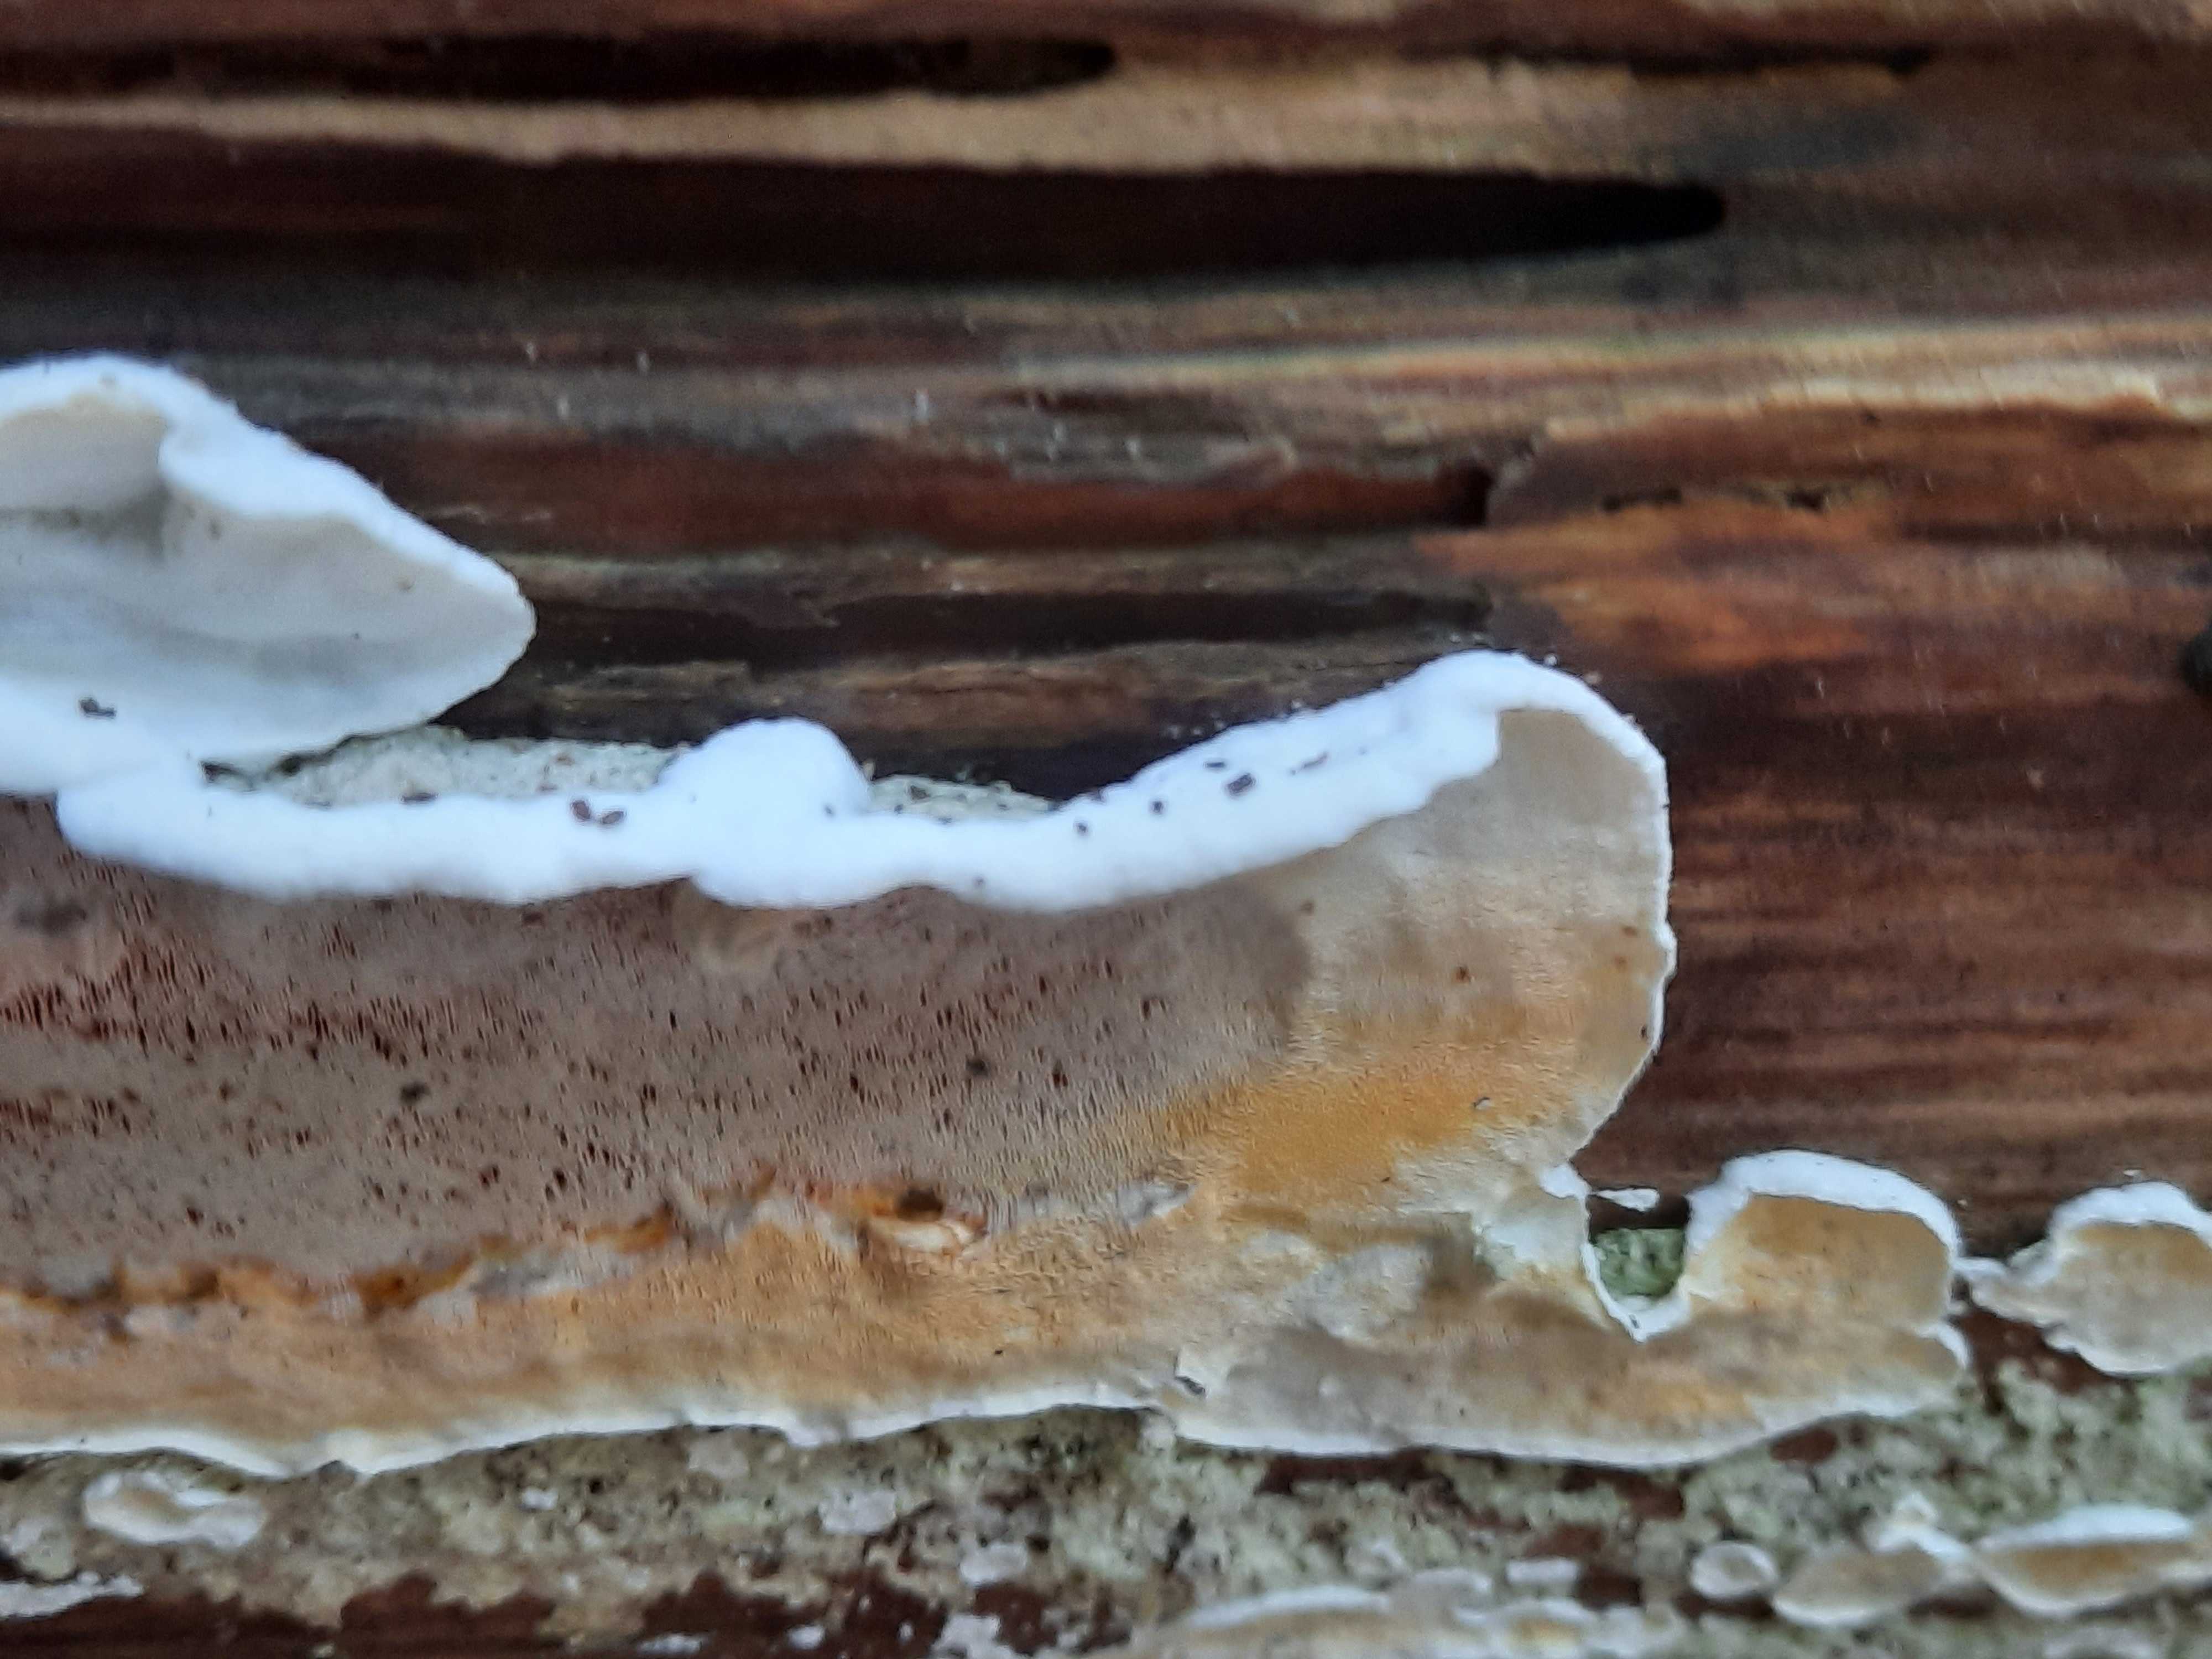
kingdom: Fungi
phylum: Basidiomycota
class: Agaricomycetes
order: Polyporales
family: Incrustoporiaceae
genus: Skeletocutis
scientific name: Skeletocutis amorpha
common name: orange krystalporesvamp
